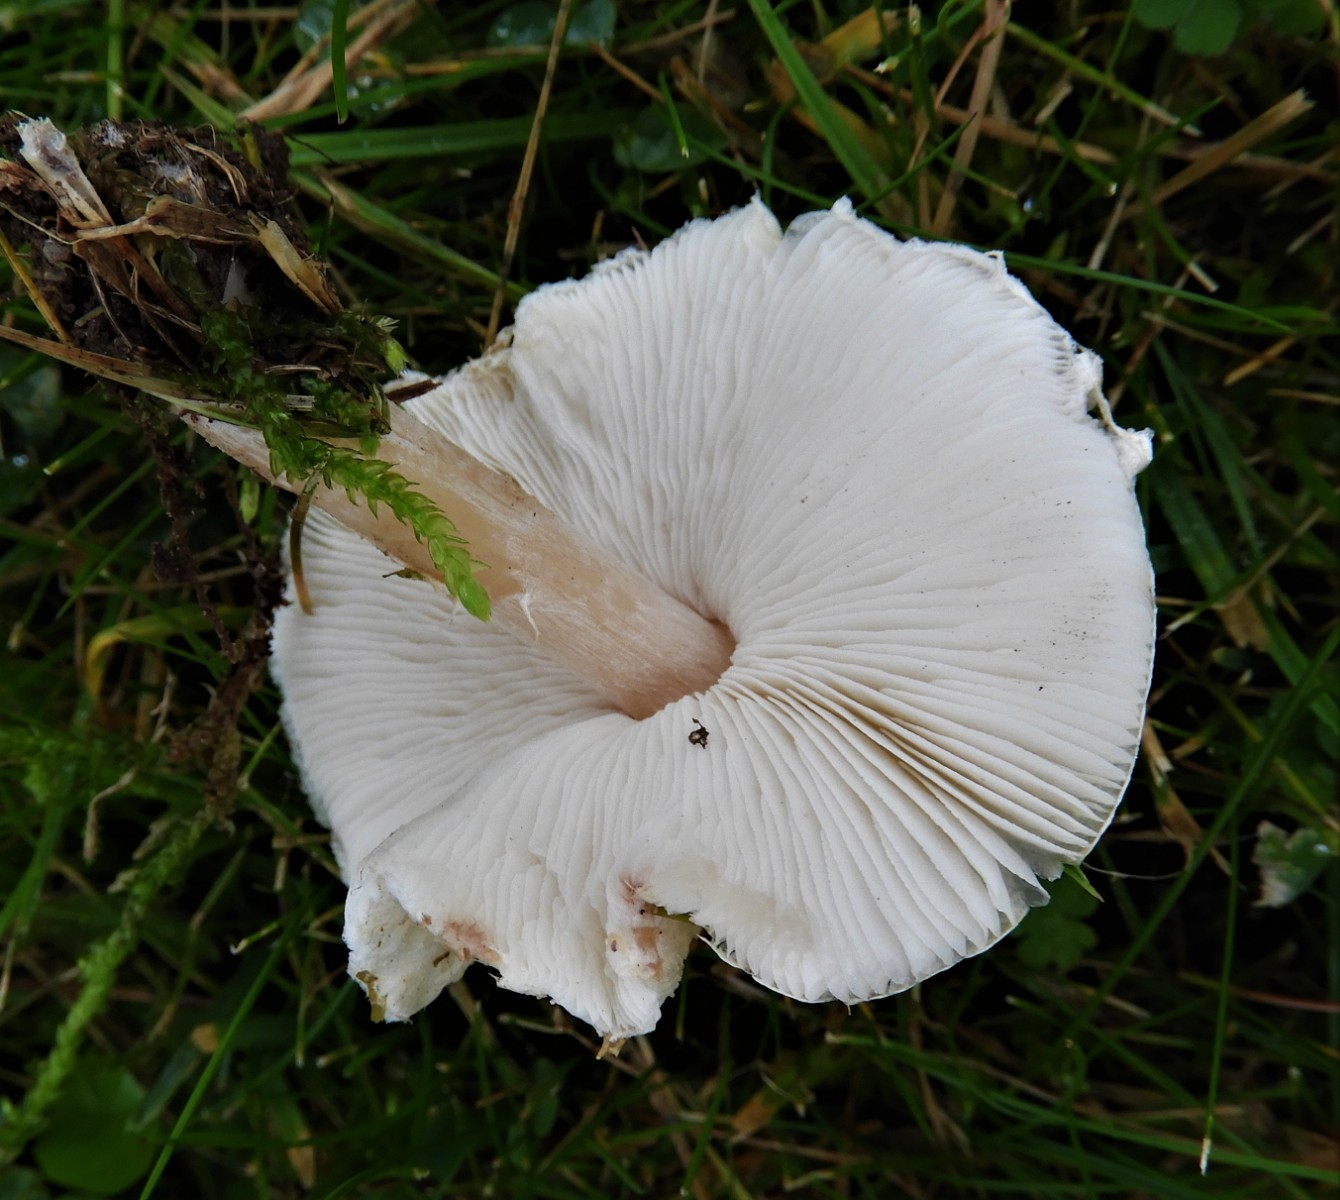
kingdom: Fungi
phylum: Basidiomycota
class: Agaricomycetes
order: Agaricales
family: Agaricaceae
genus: Lepiota
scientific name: Lepiota cristata
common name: stinkende parasolhat
